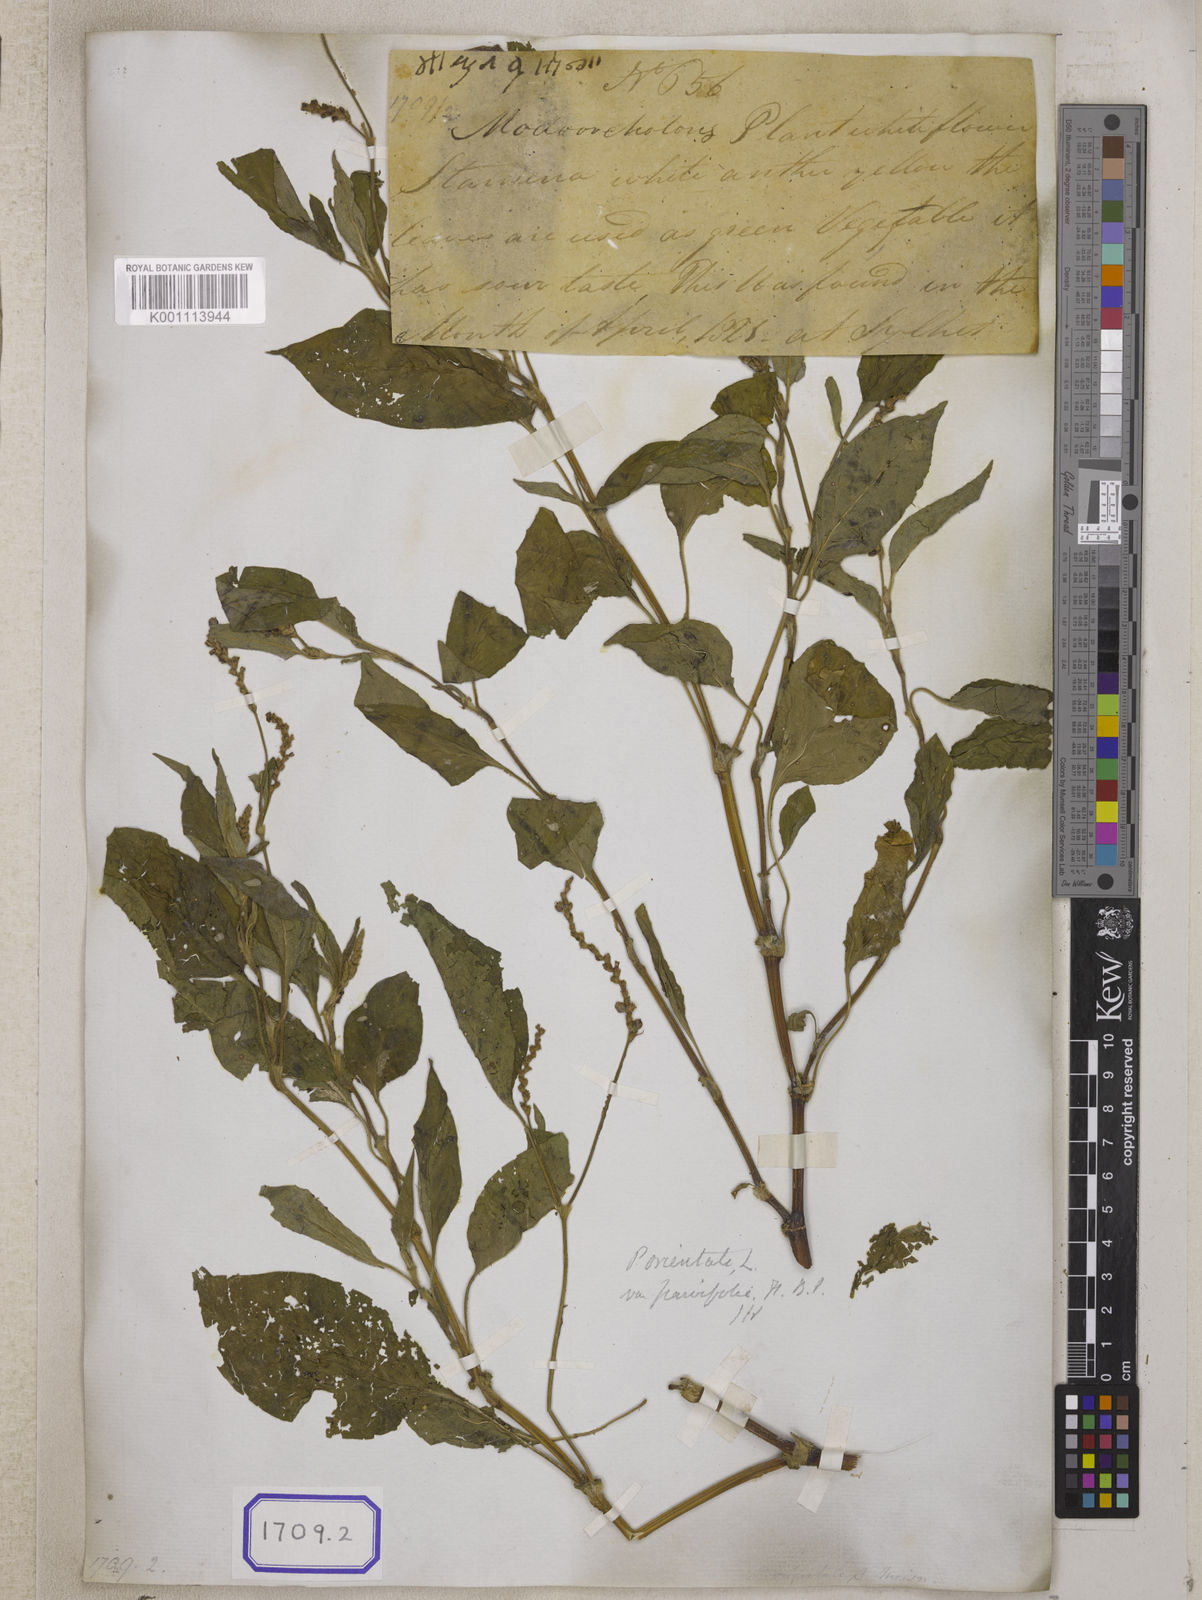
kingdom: Plantae
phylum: Tracheophyta
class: Magnoliopsida
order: Caryophyllales
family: Polygonaceae
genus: Persicaria
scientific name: Persicaria madagascariensis
